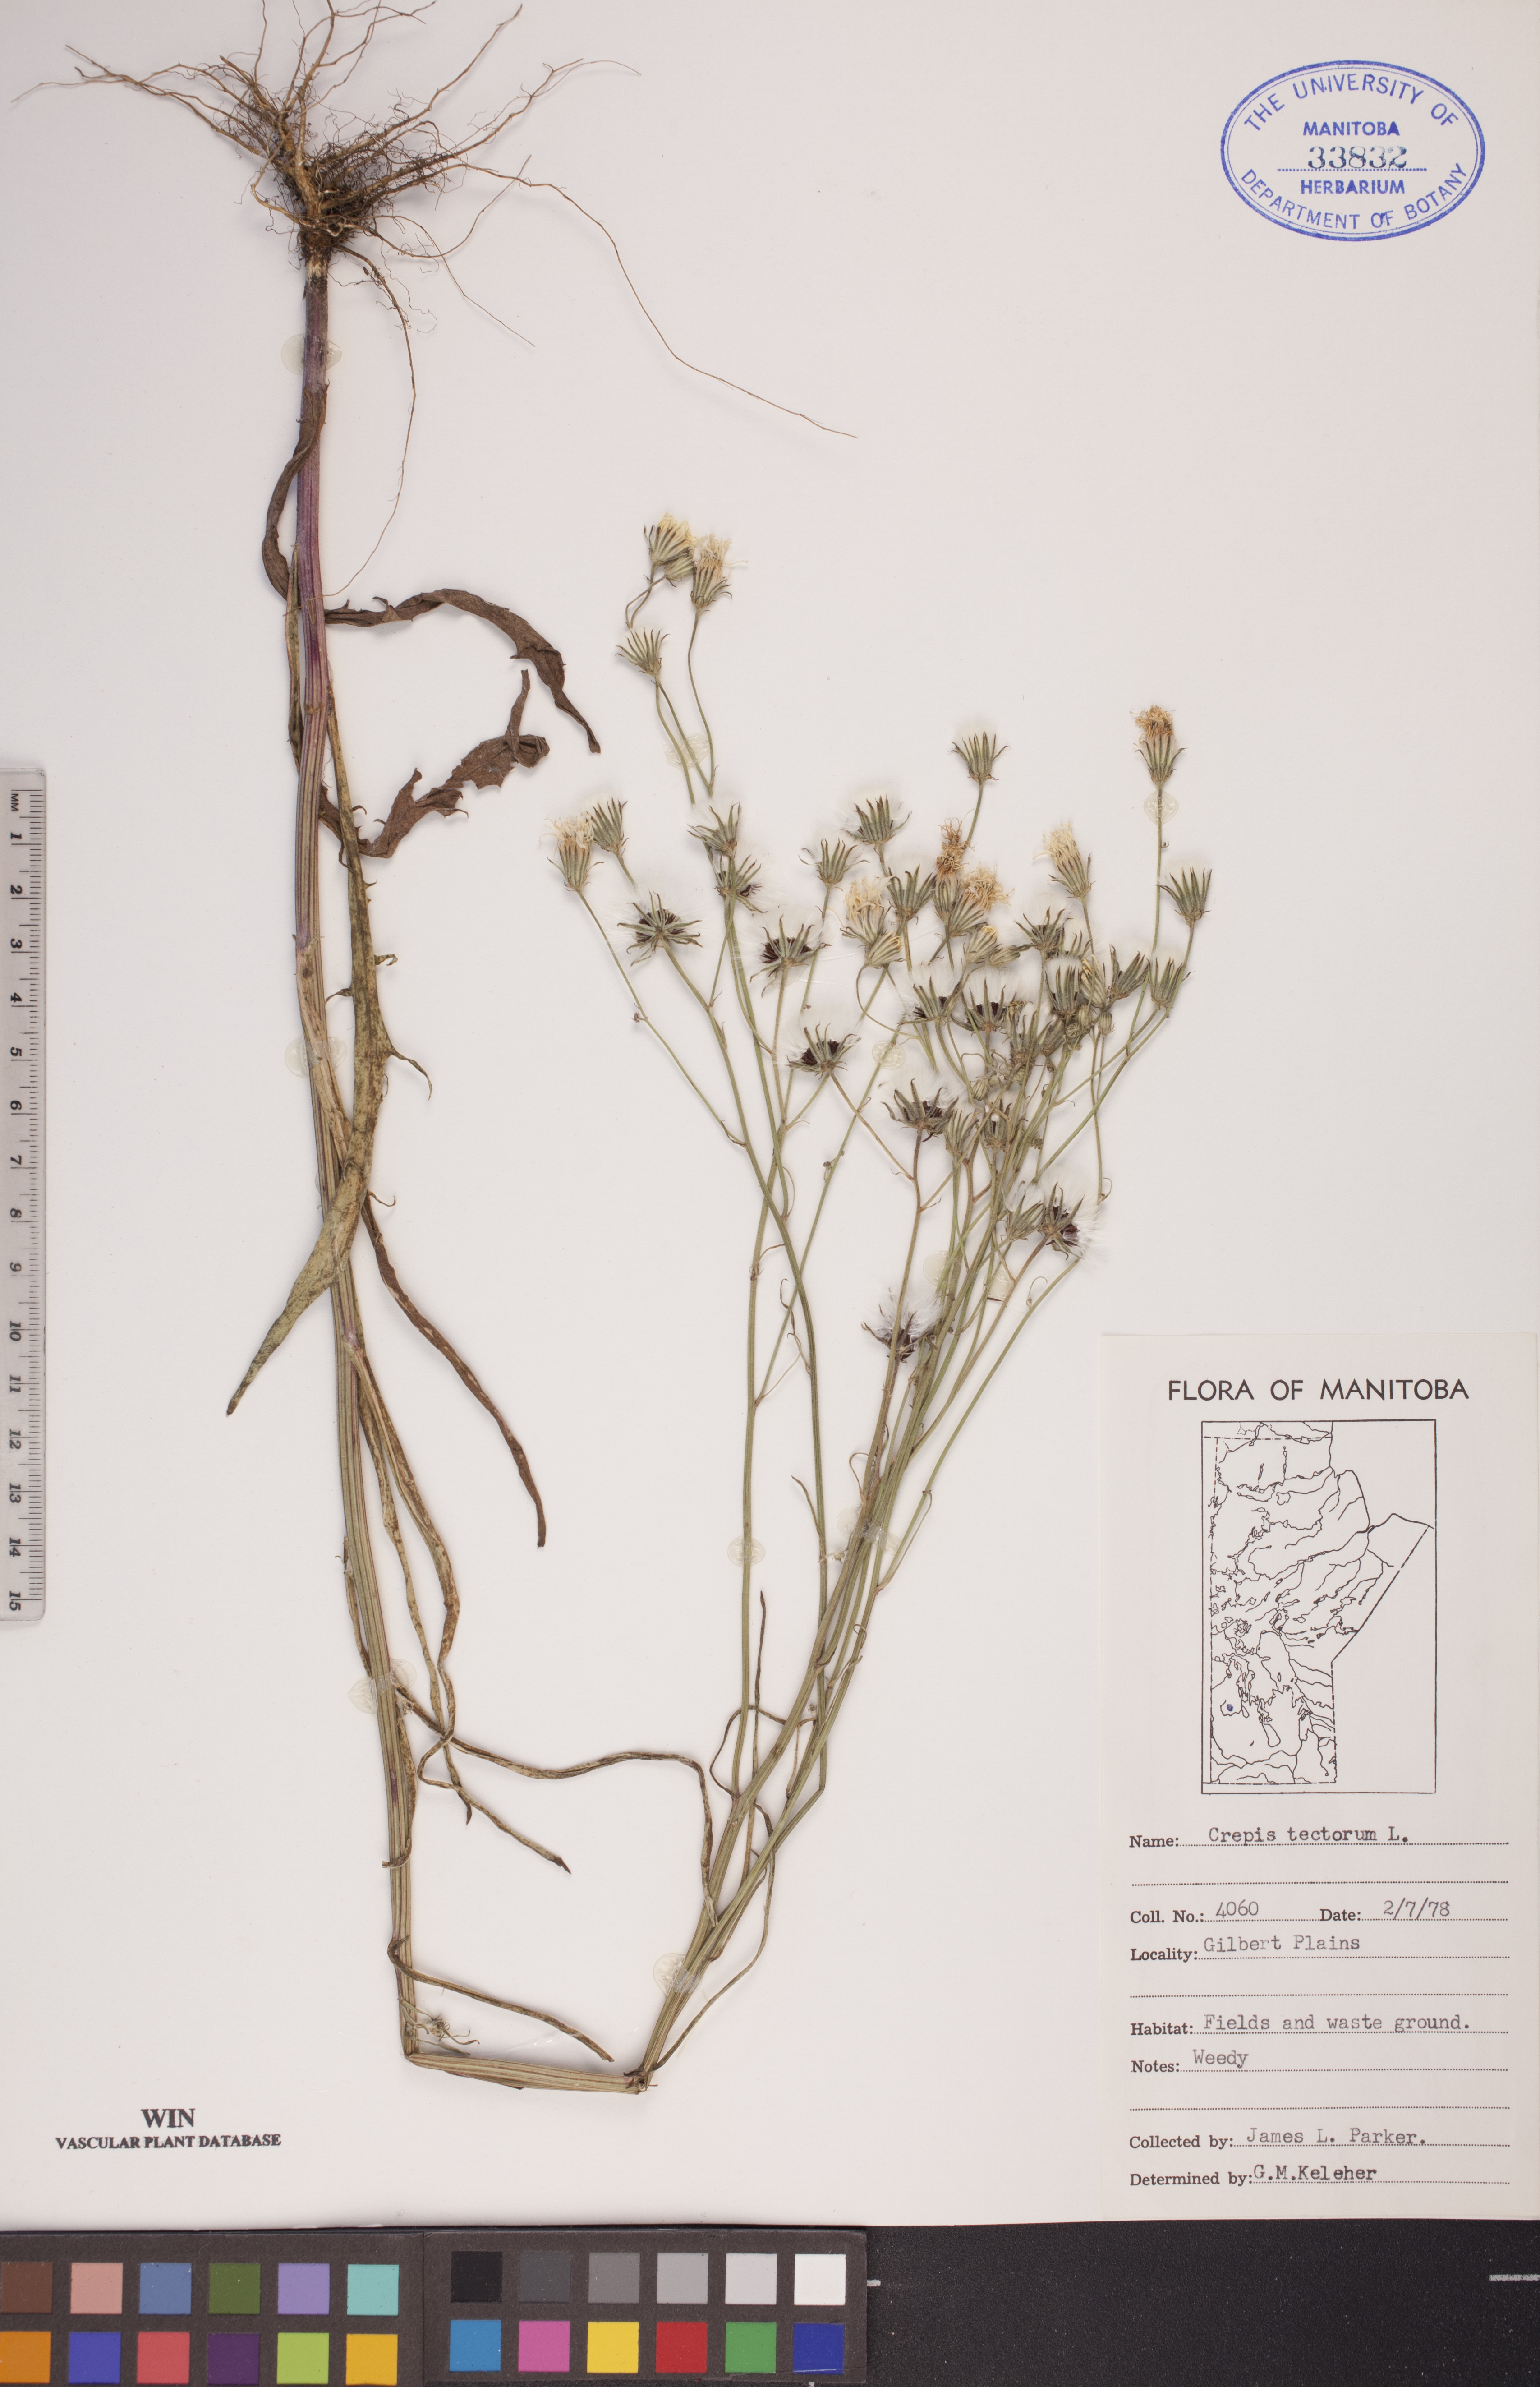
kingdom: Plantae
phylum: Tracheophyta
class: Magnoliopsida
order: Asterales
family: Asteraceae
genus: Crepis
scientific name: Crepis tectorum
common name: Narrow-leaved hawk's-beard
